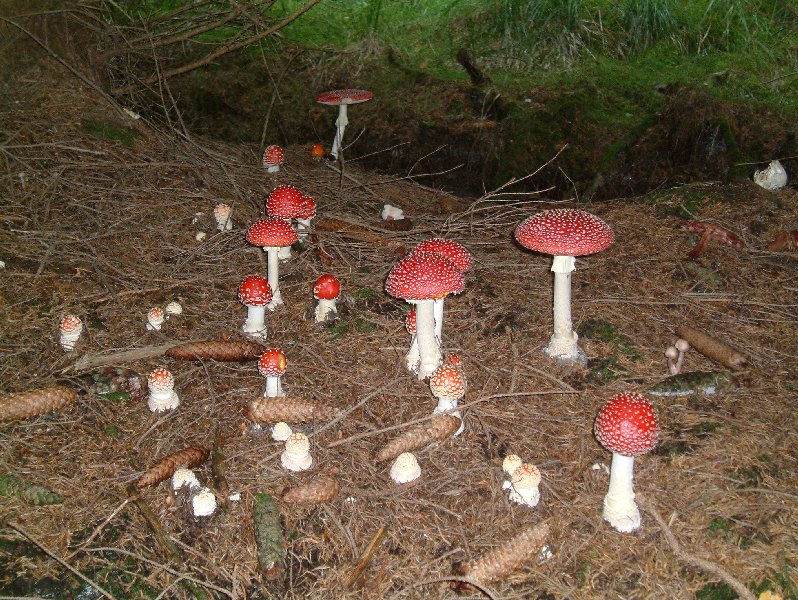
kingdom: Fungi
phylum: Basidiomycota
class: Agaricomycetes
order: Agaricales
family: Amanitaceae
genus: Amanita
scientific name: Amanita muscaria
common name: rød fluesvamp
